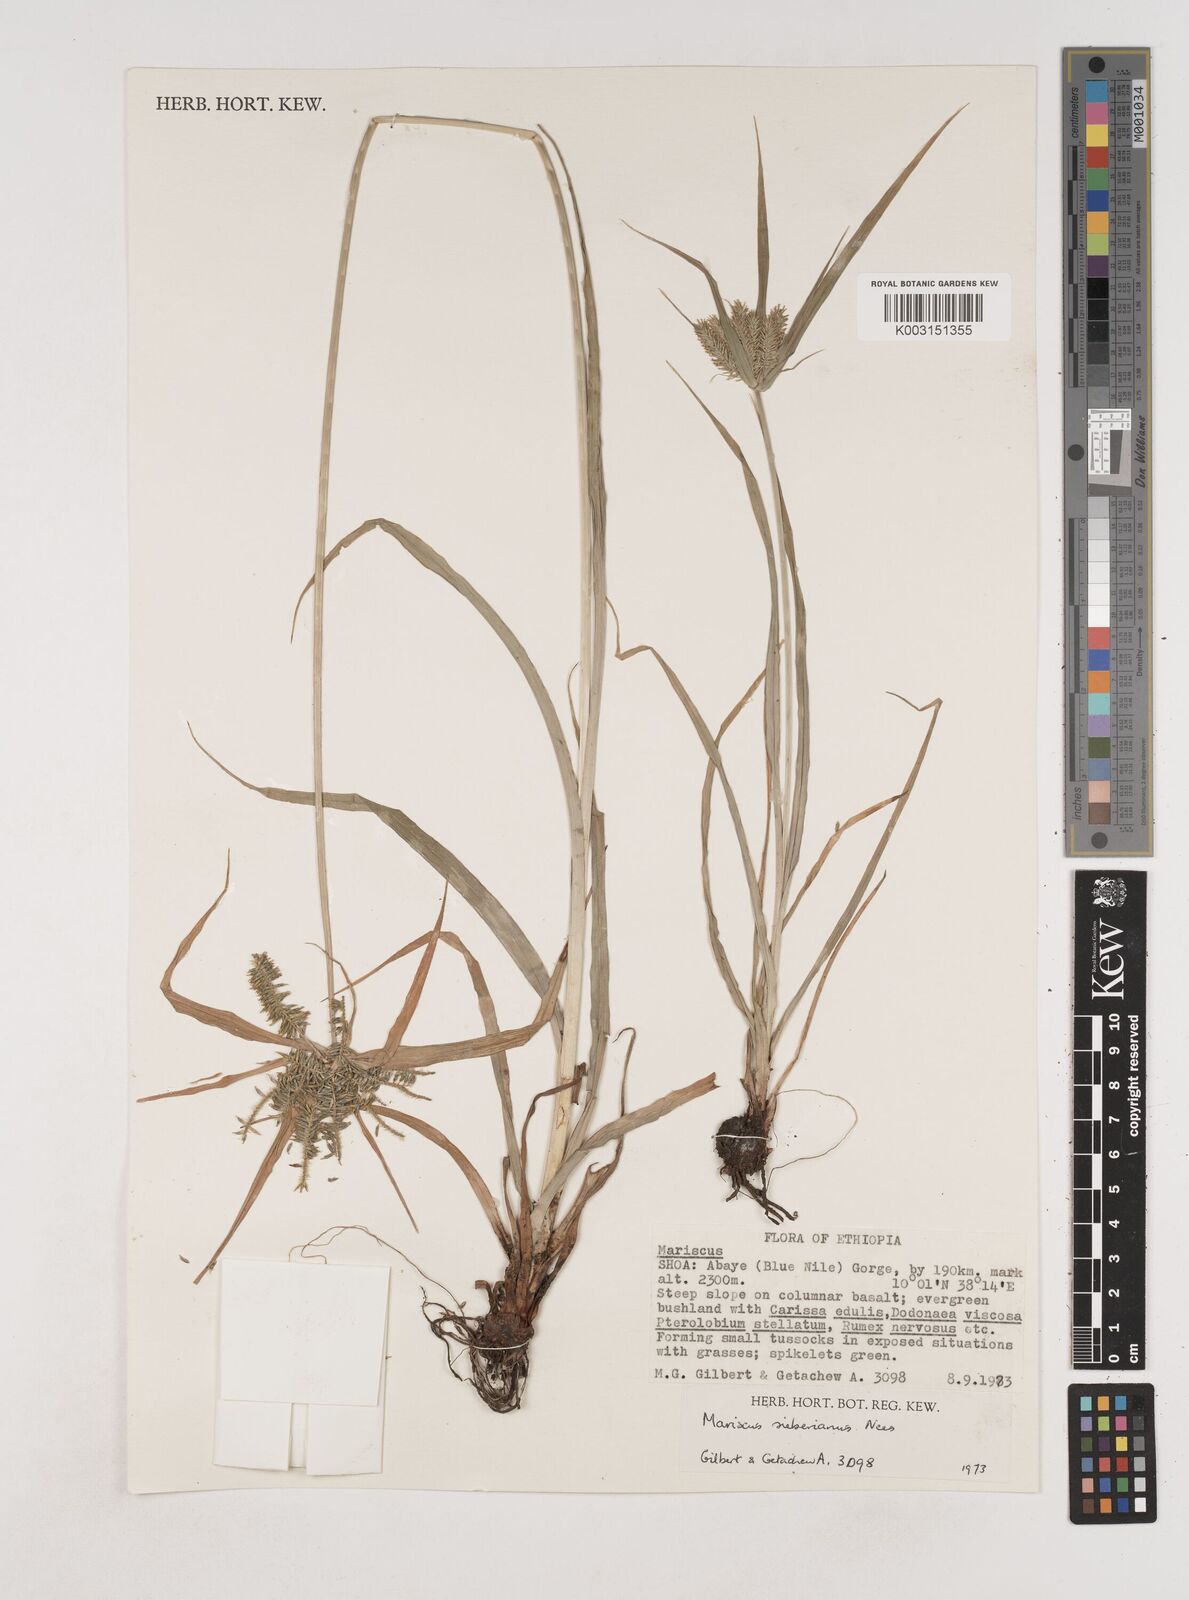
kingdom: Plantae
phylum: Tracheophyta
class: Liliopsida
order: Poales
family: Cyperaceae
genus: Cyperus
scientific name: Cyperus cyperoides
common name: Pacific island flat sedge
